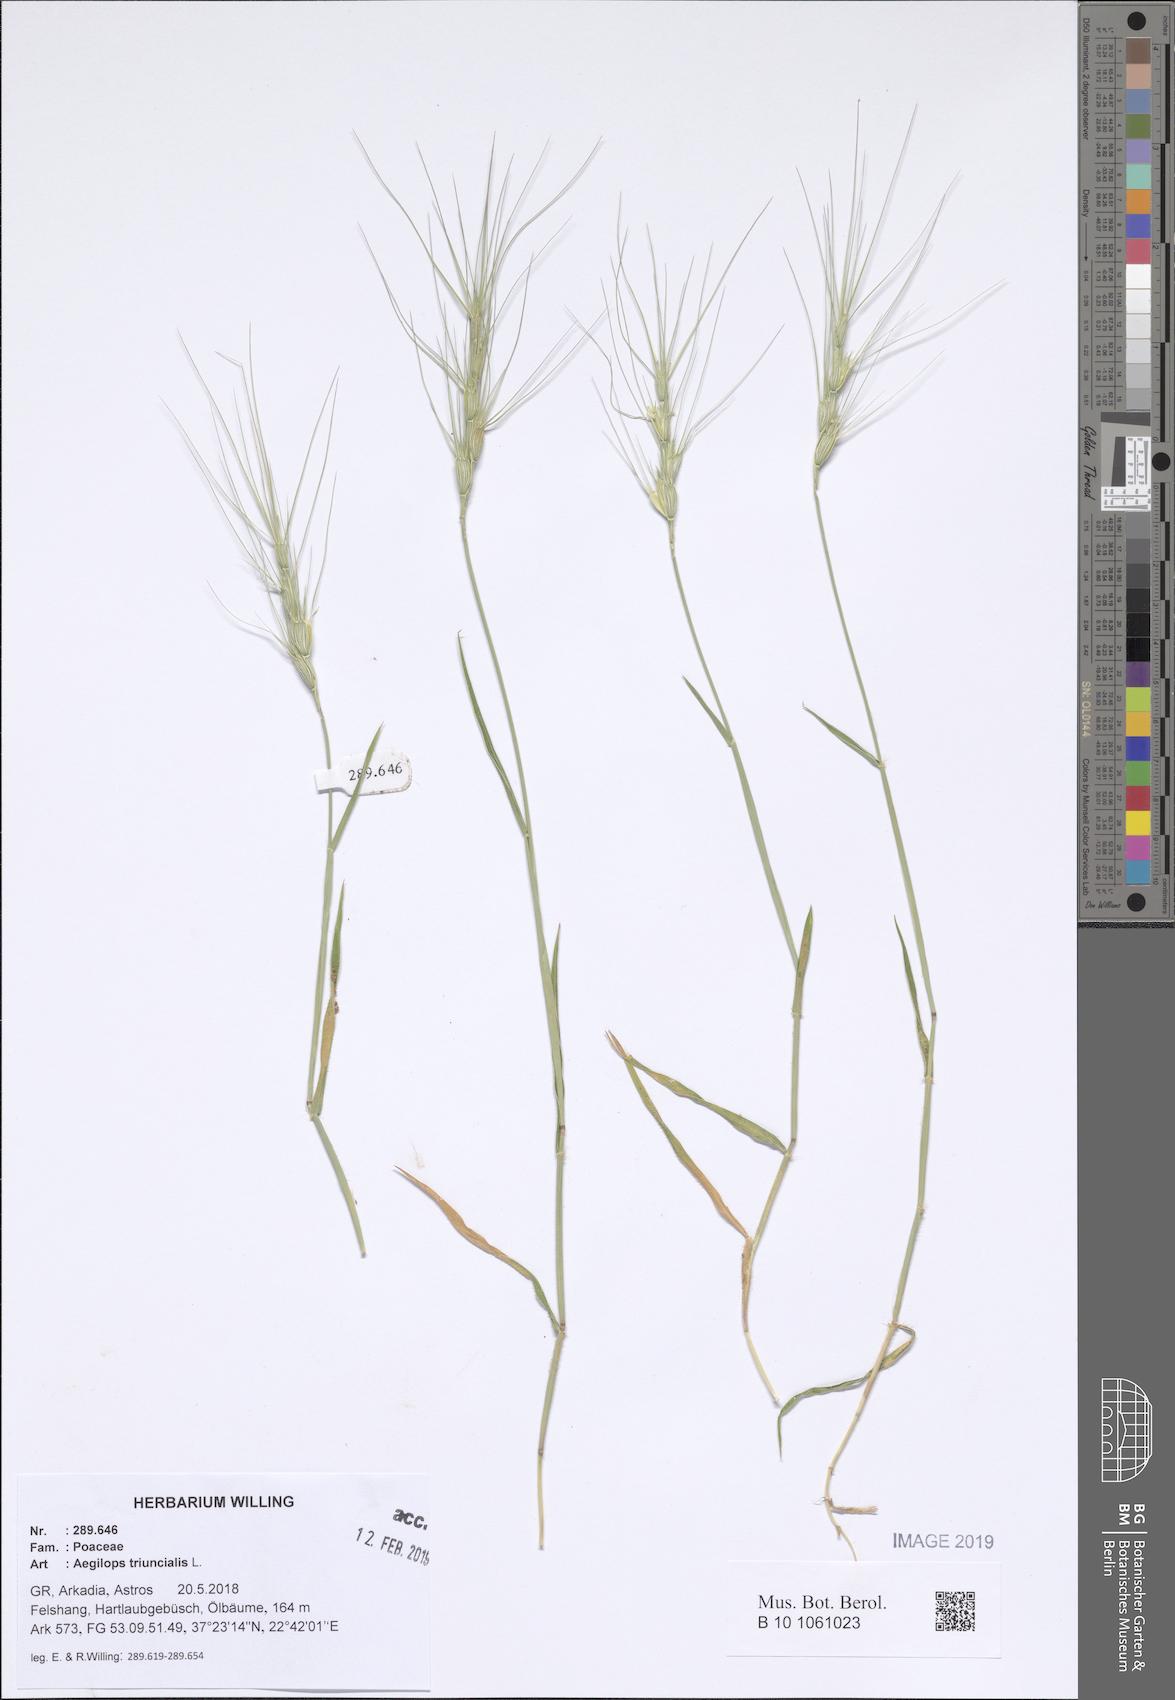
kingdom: Plantae
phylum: Tracheophyta
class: Liliopsida
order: Poales
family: Poaceae
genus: Aegilops
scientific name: Aegilops triuncialis
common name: Barb goat grass
